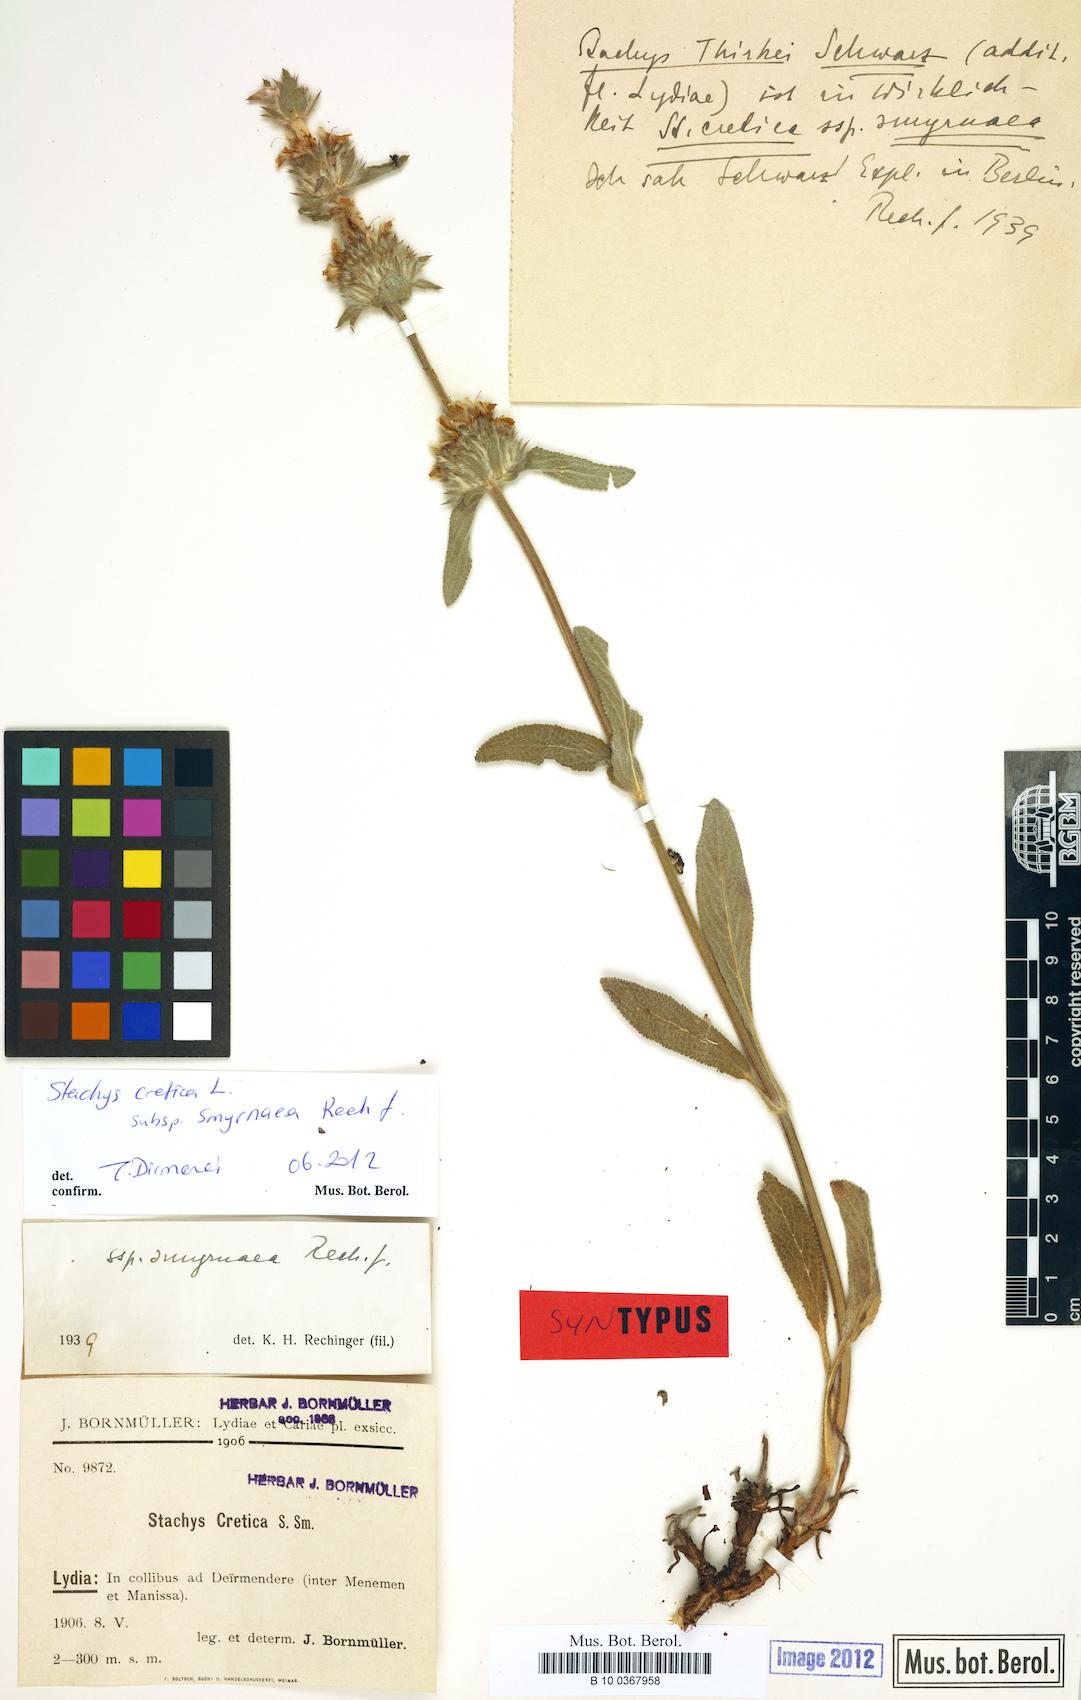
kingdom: Plantae
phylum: Tracheophyta
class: Magnoliopsida
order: Lamiales
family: Lamiaceae
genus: Stachys
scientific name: Stachys cretica
